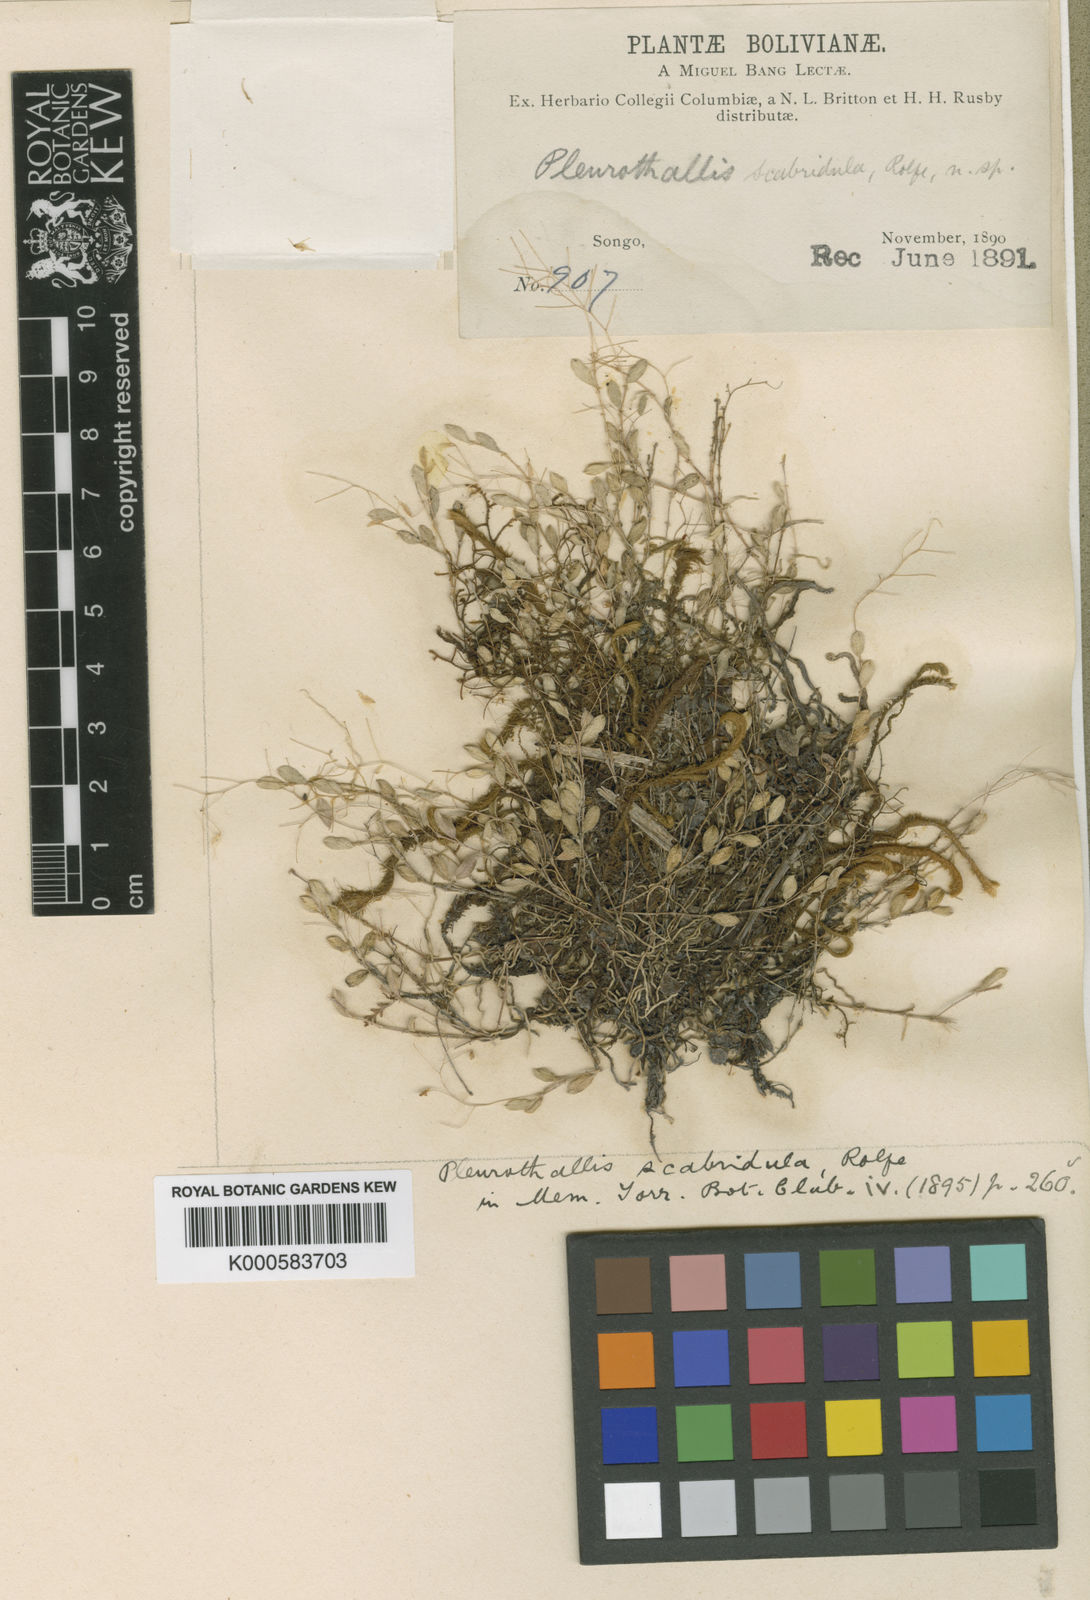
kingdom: Plantae
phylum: Tracheophyta
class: Liliopsida
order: Asparagales
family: Orchidaceae
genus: Trichosalpinx
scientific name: Trichosalpinx scabridula
